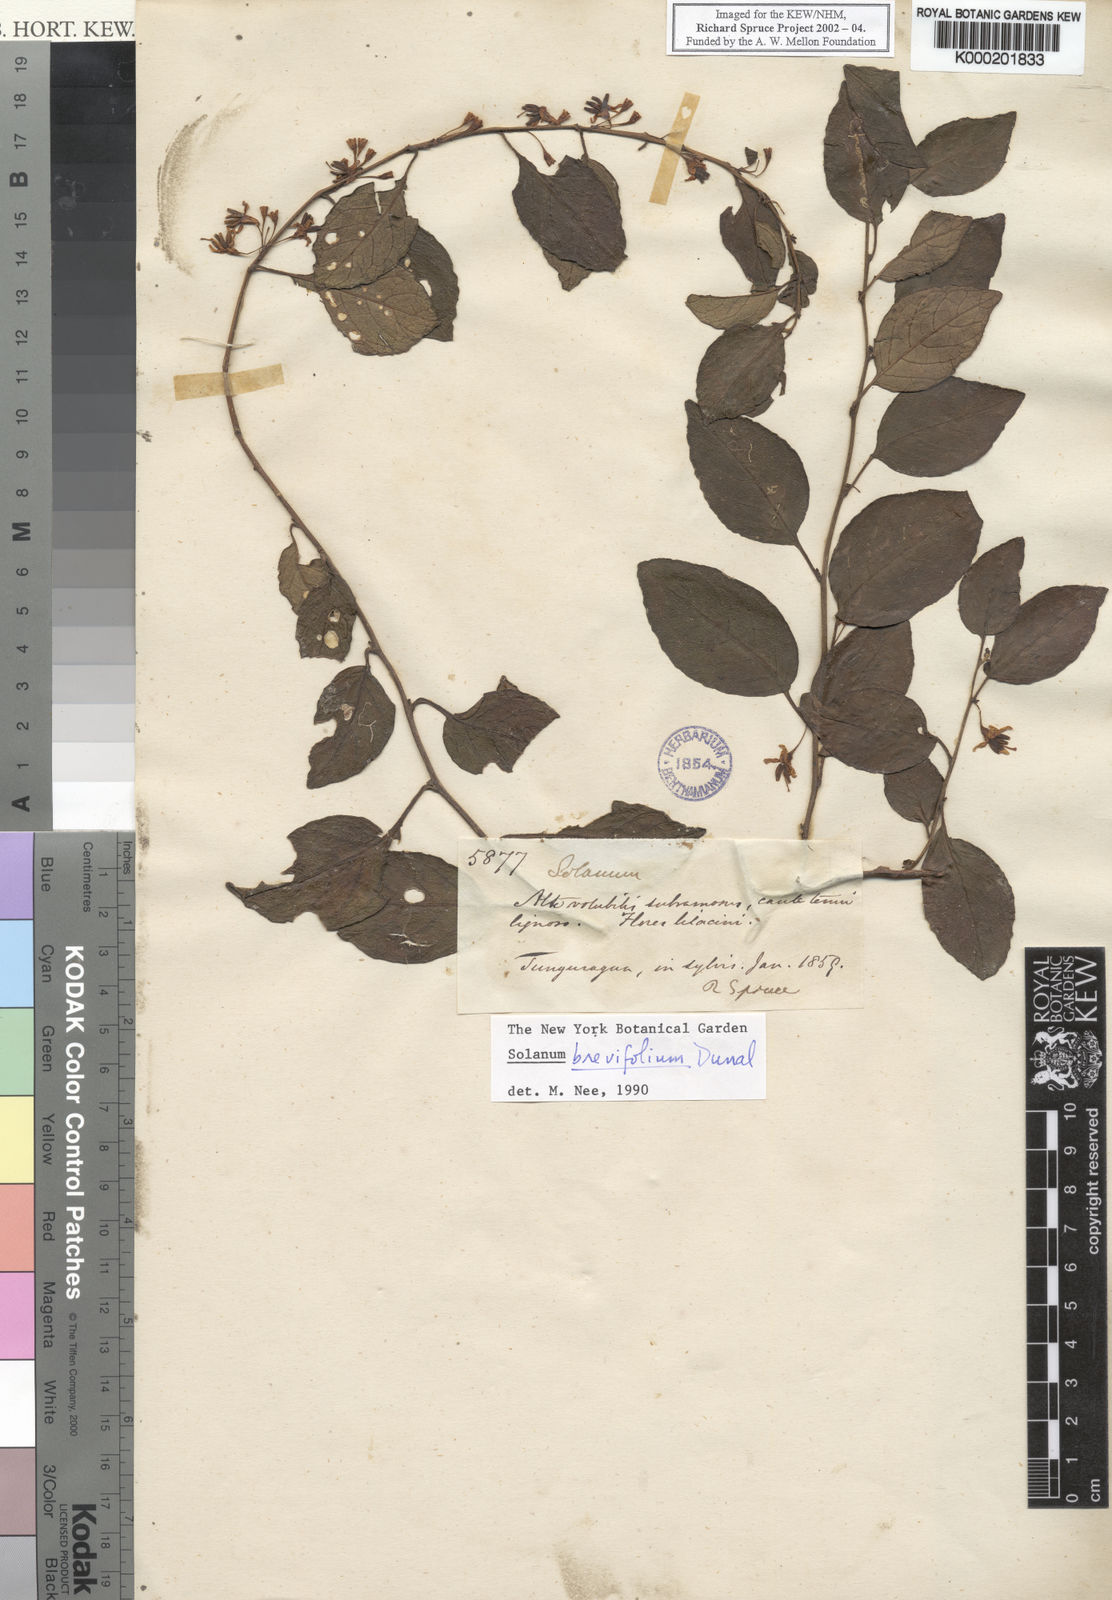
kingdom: Plantae
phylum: Tracheophyta
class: Magnoliopsida
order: Solanales
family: Solanaceae
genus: Solanum
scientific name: Solanum brevifolium
